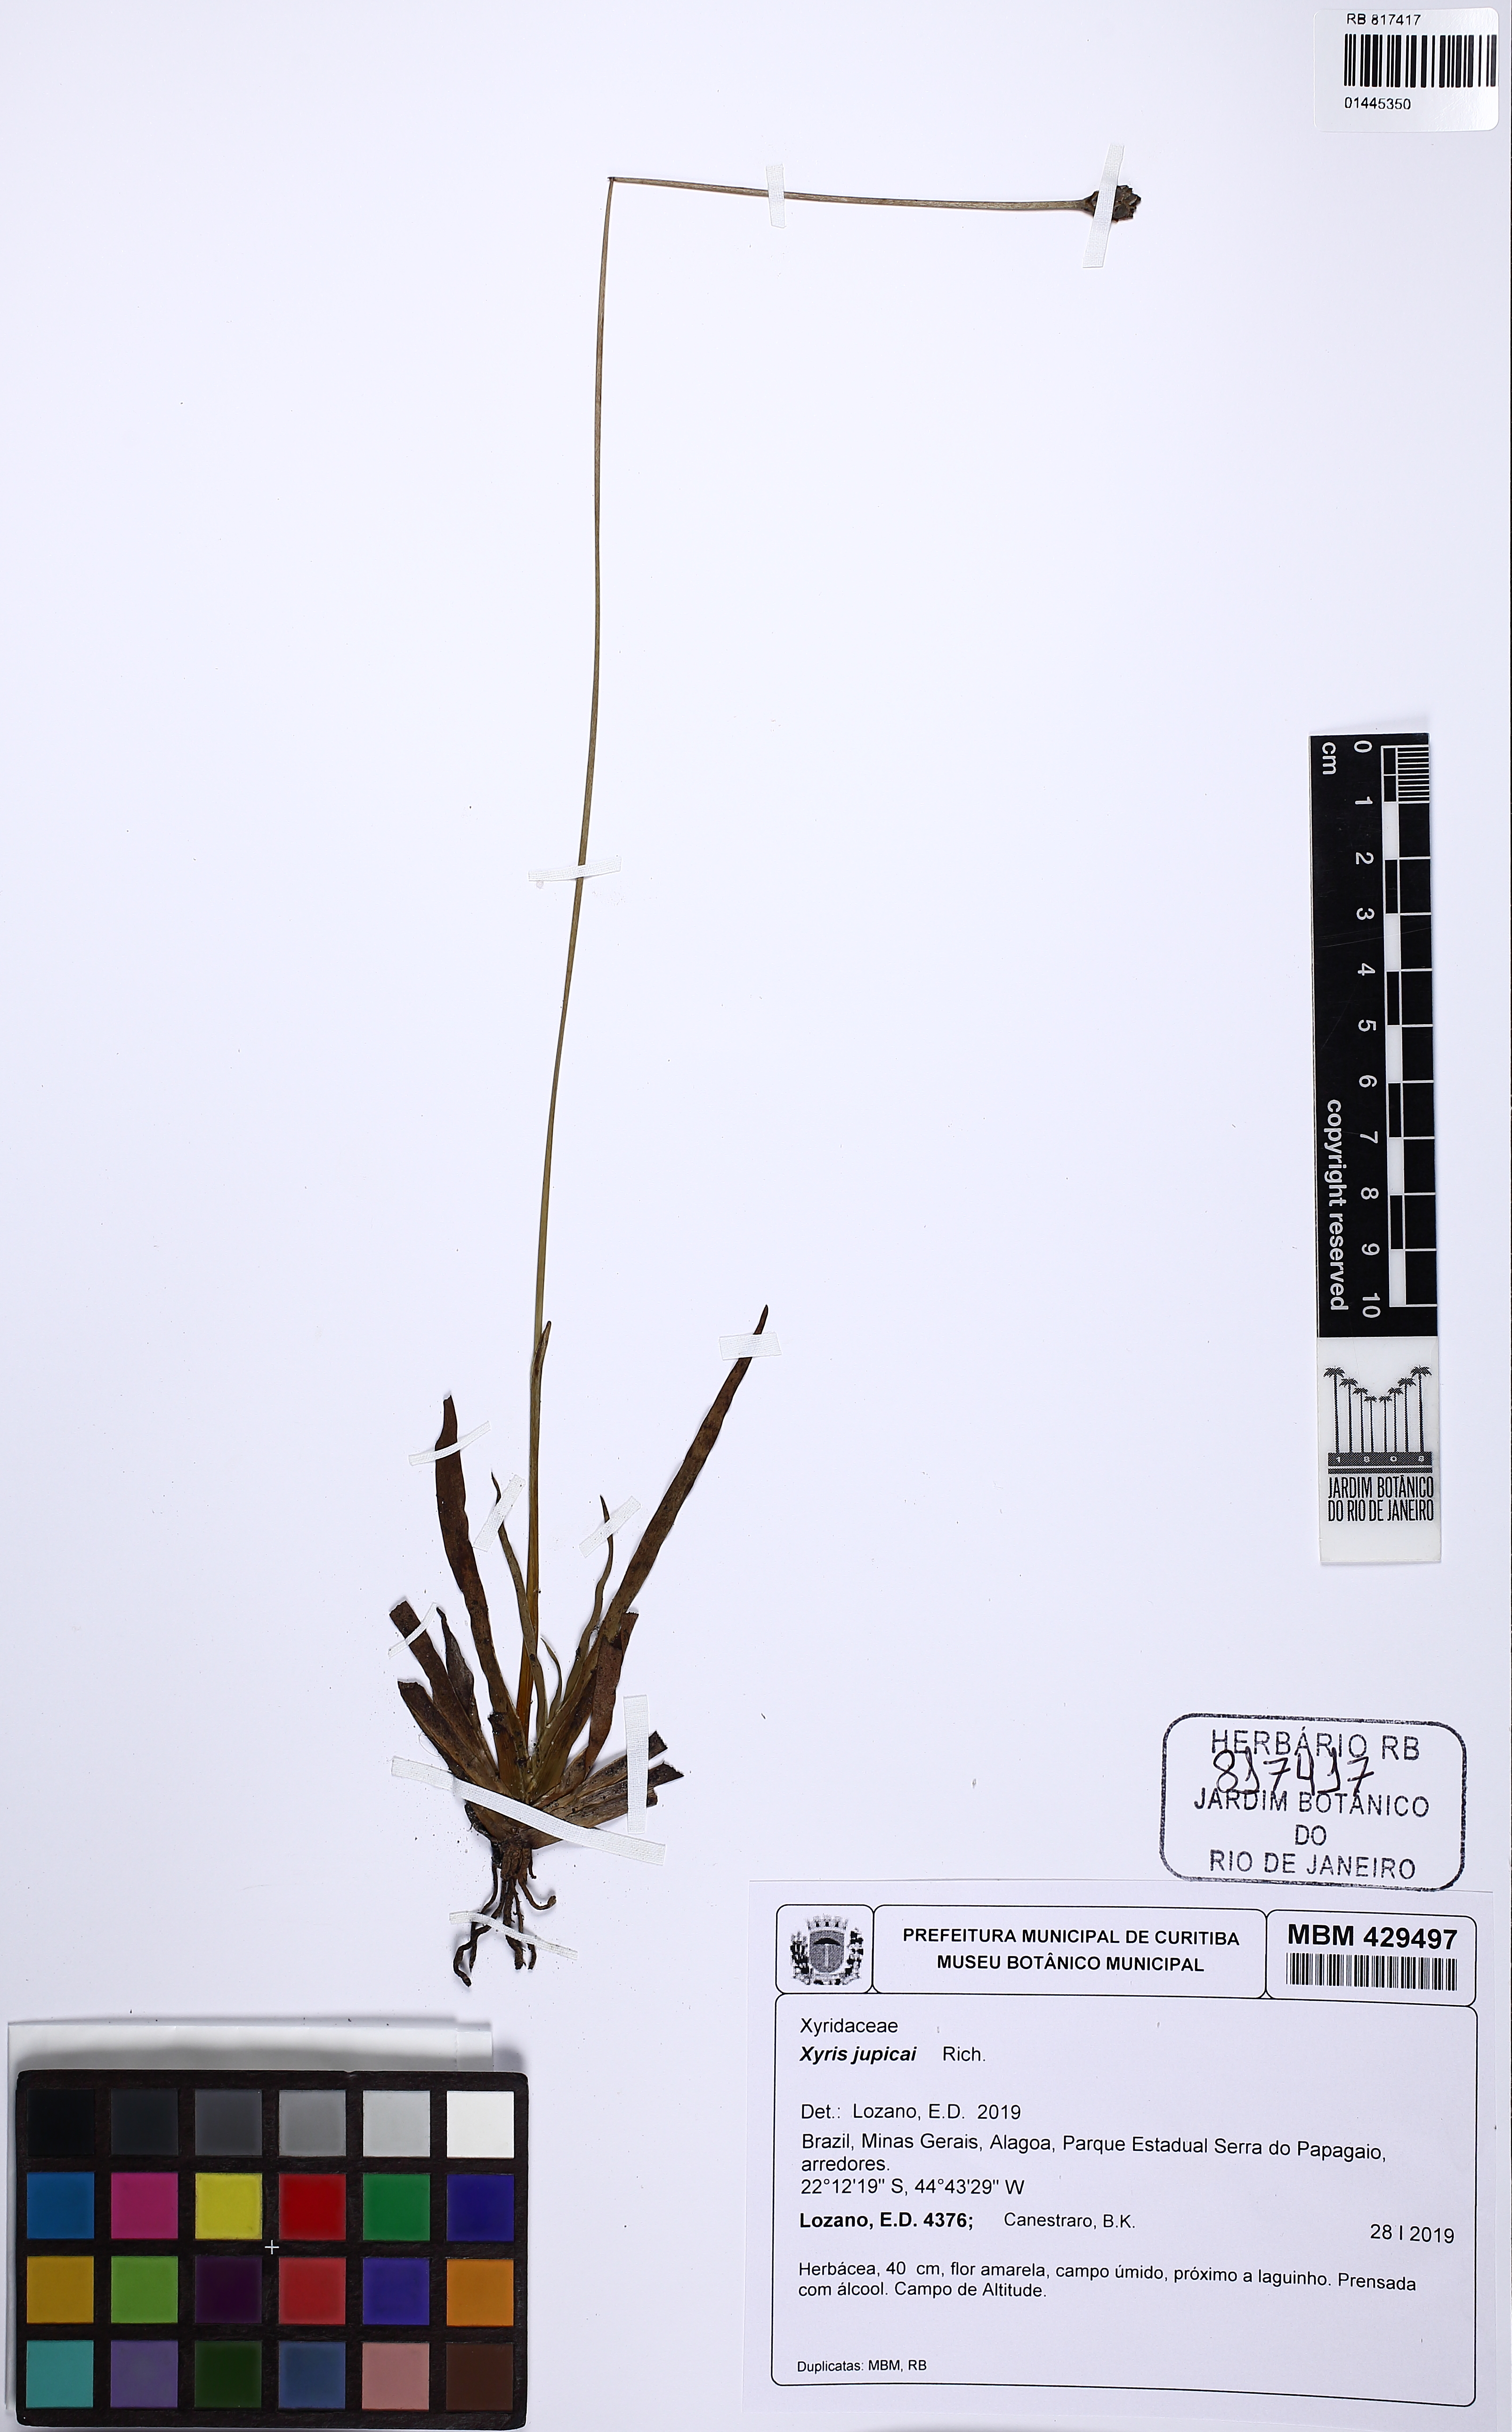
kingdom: Plantae
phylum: Tracheophyta
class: Liliopsida
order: Poales
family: Xyridaceae
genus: Xyris
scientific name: Xyris jupicai
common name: Richard's yelloweyed grass
